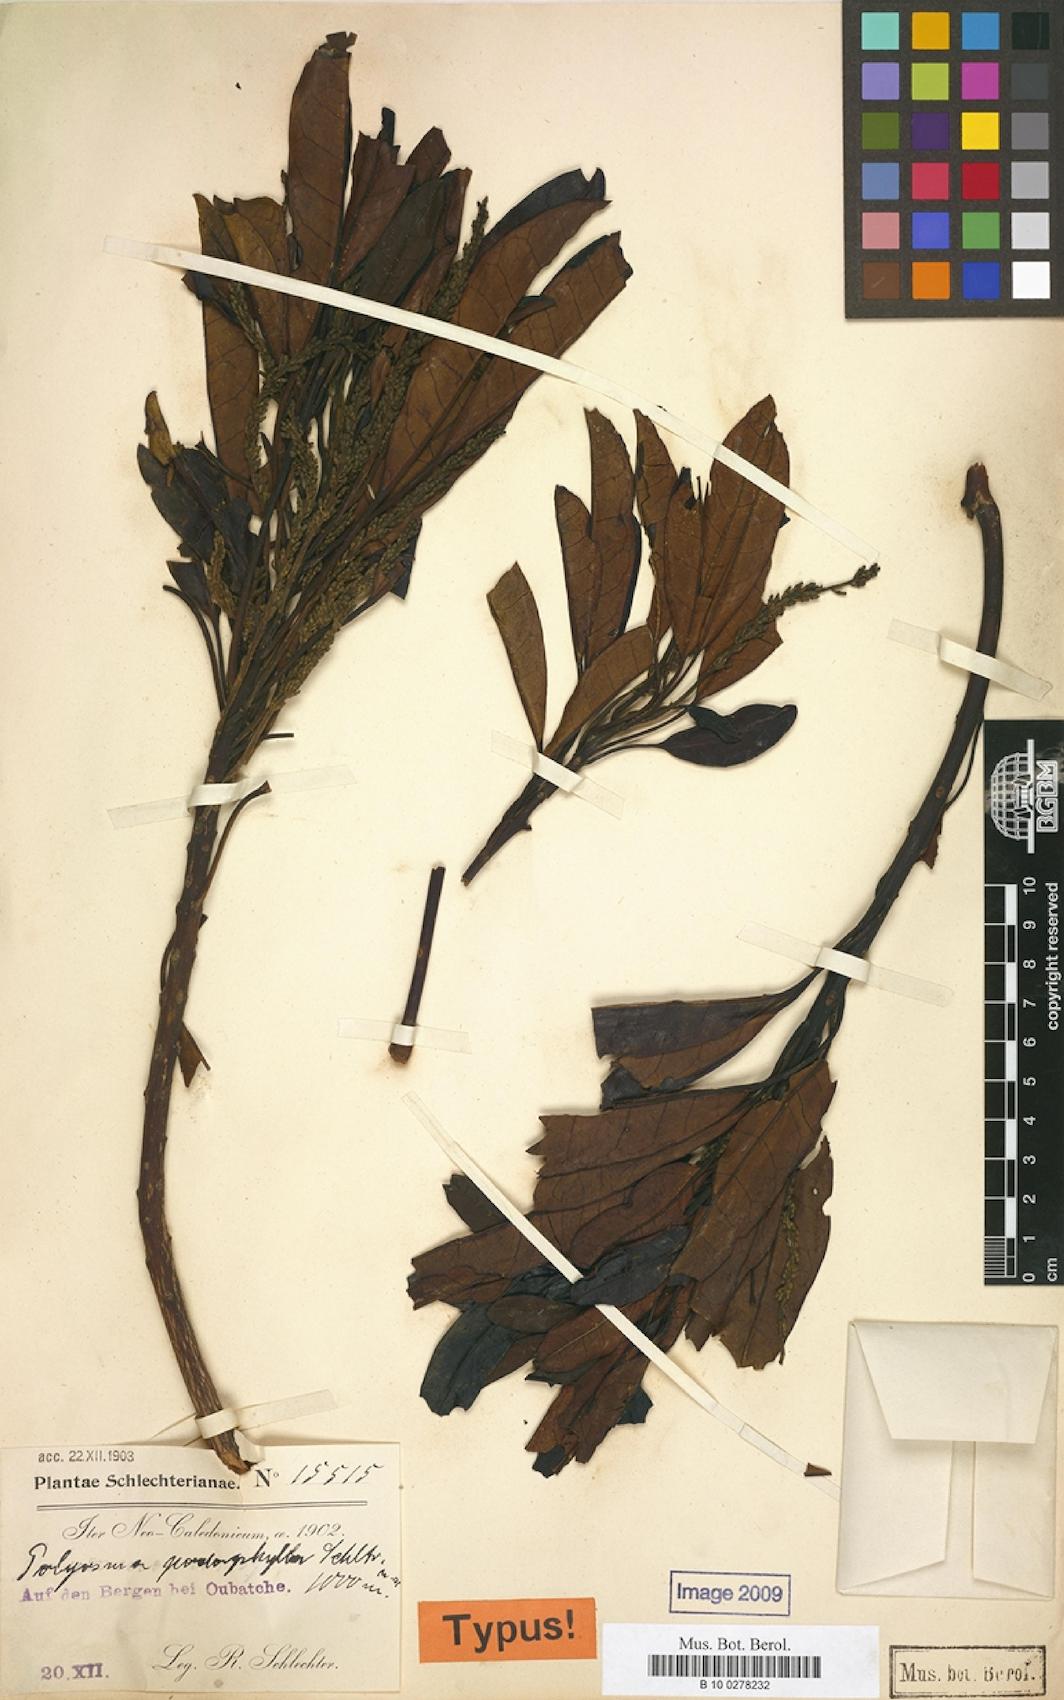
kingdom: Plantae
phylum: Tracheophyta
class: Magnoliopsida
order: Escalloniales
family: Escalloniaceae
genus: Polyosma
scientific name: Polyosma discolor
